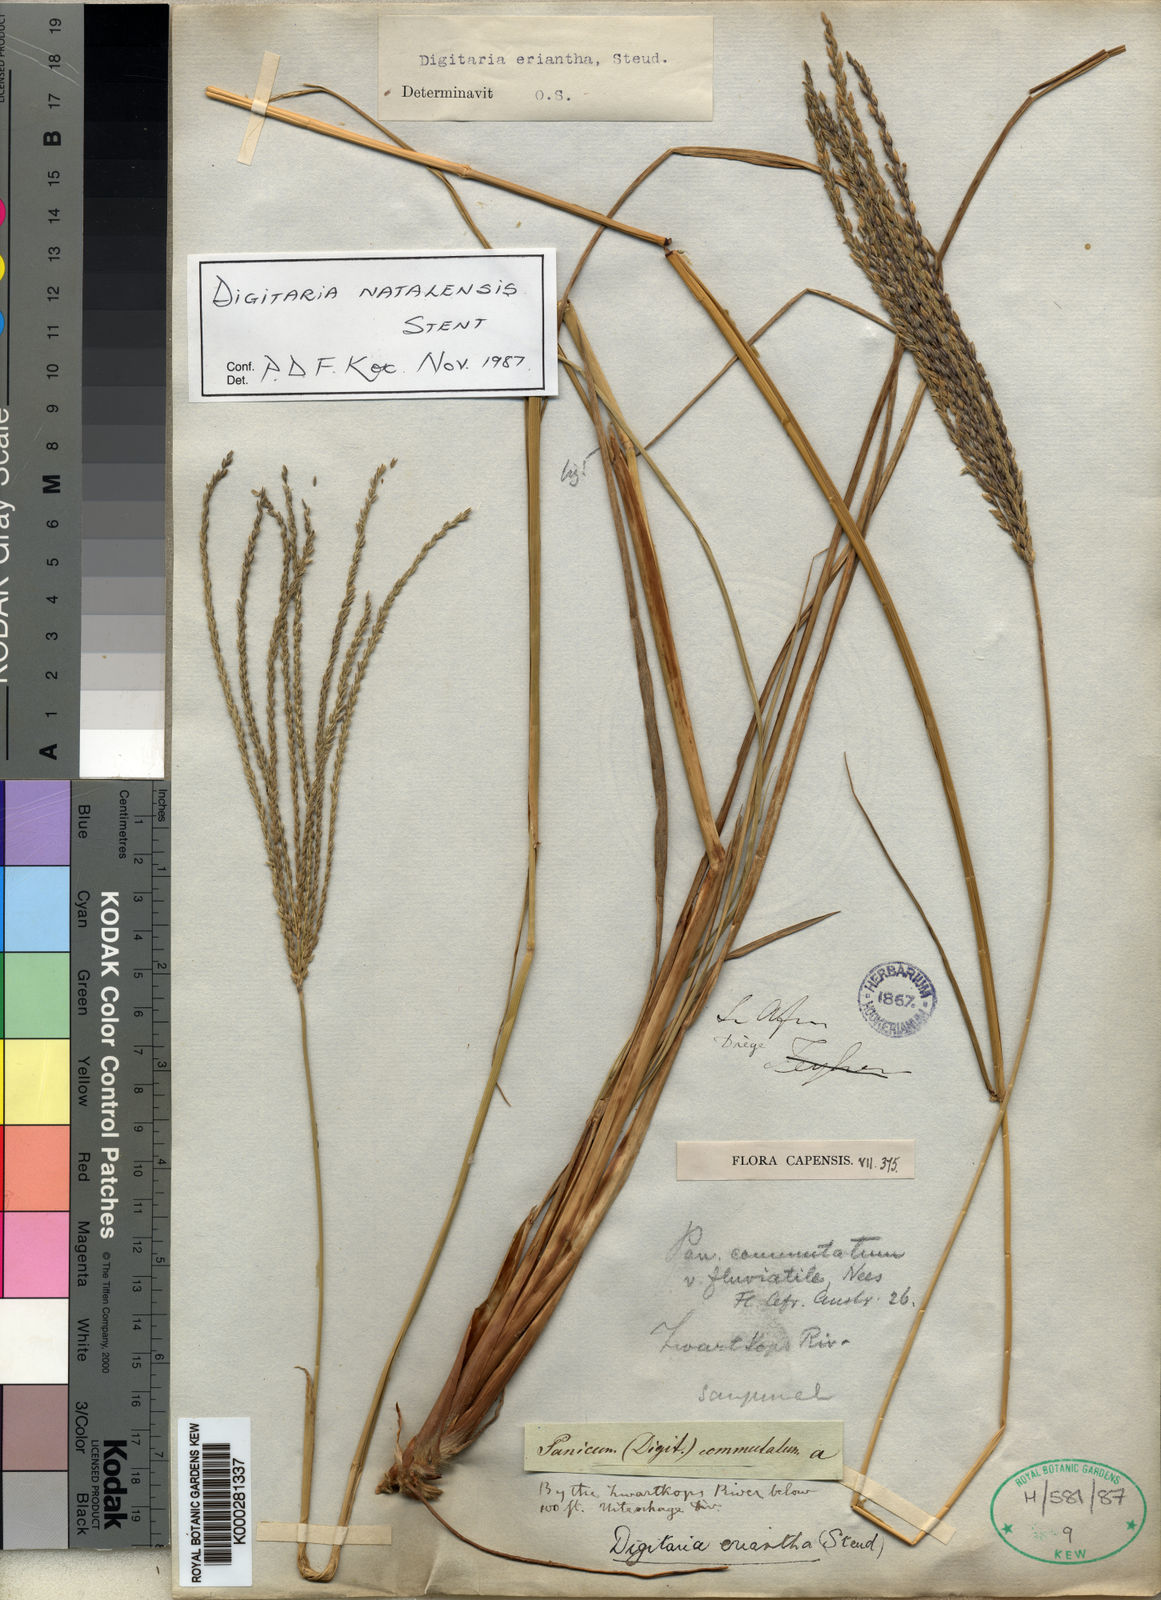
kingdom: Plantae
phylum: Tracheophyta
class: Liliopsida
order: Poales
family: Poaceae
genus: Digitaria
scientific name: Digitaria eriantha
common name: Digitgrass
